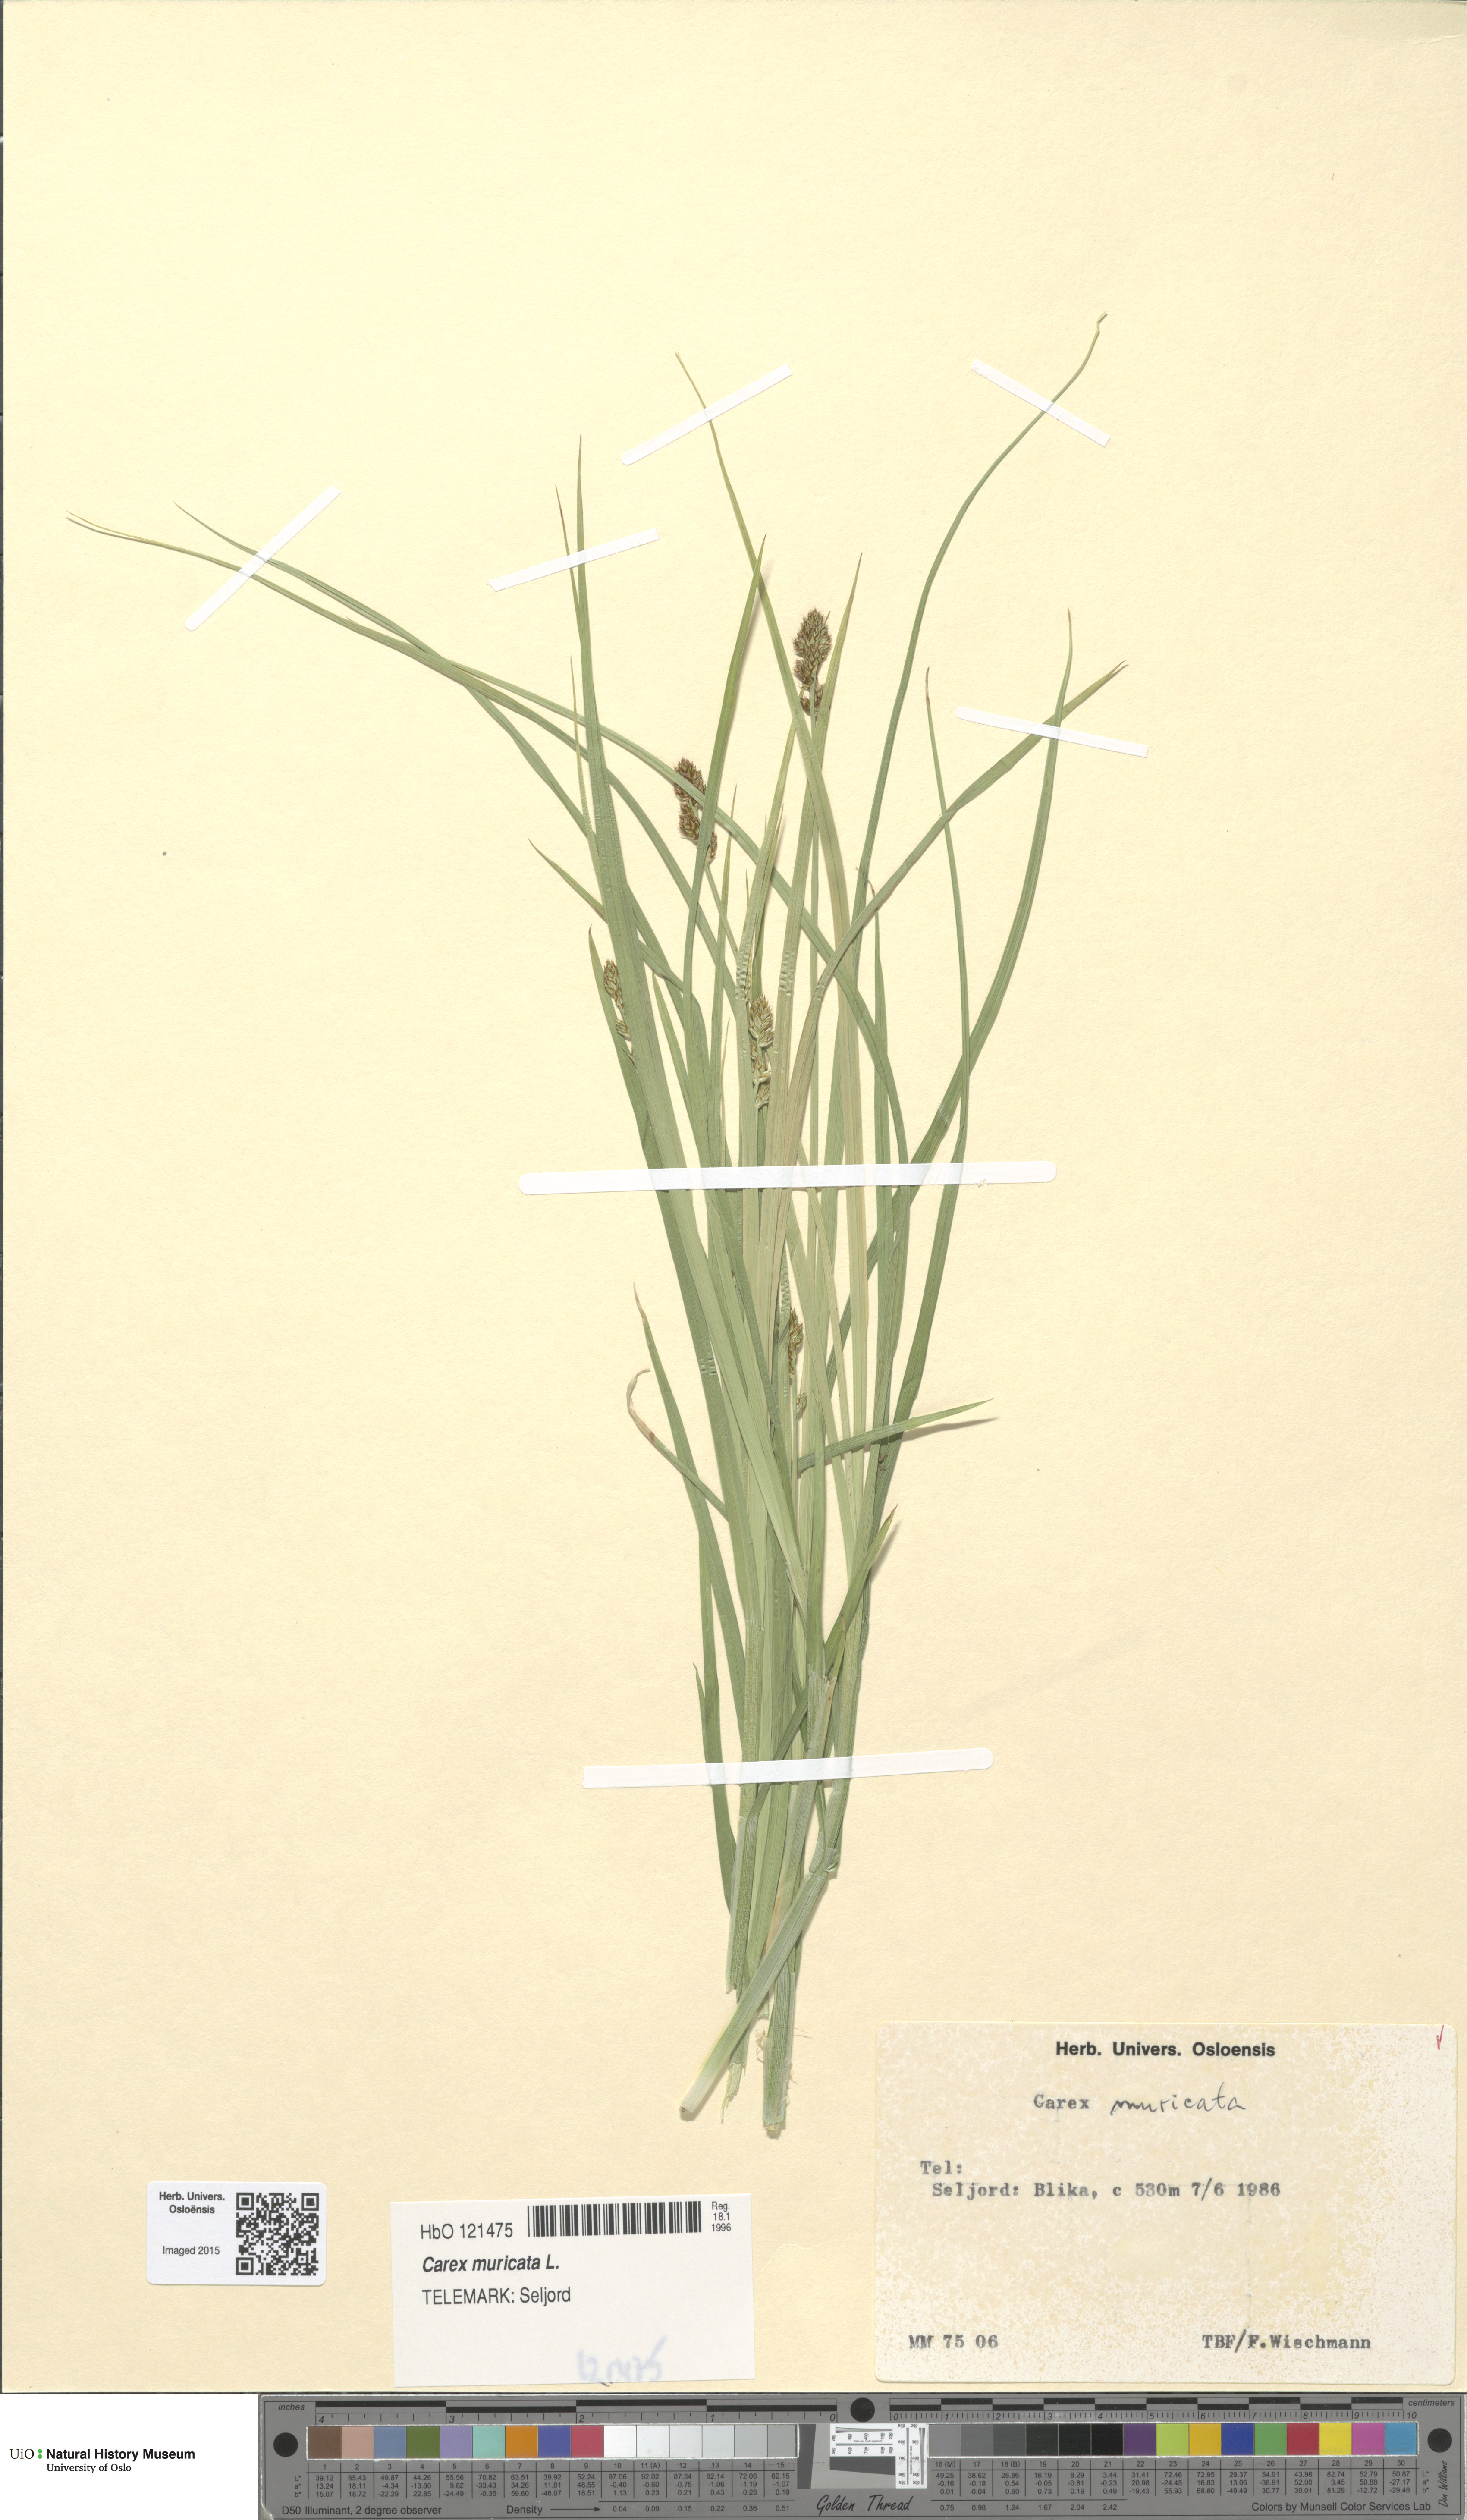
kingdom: Plantae
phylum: Tracheophyta
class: Liliopsida
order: Poales
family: Cyperaceae
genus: Carex
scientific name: Carex muricata
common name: Rough sedge
